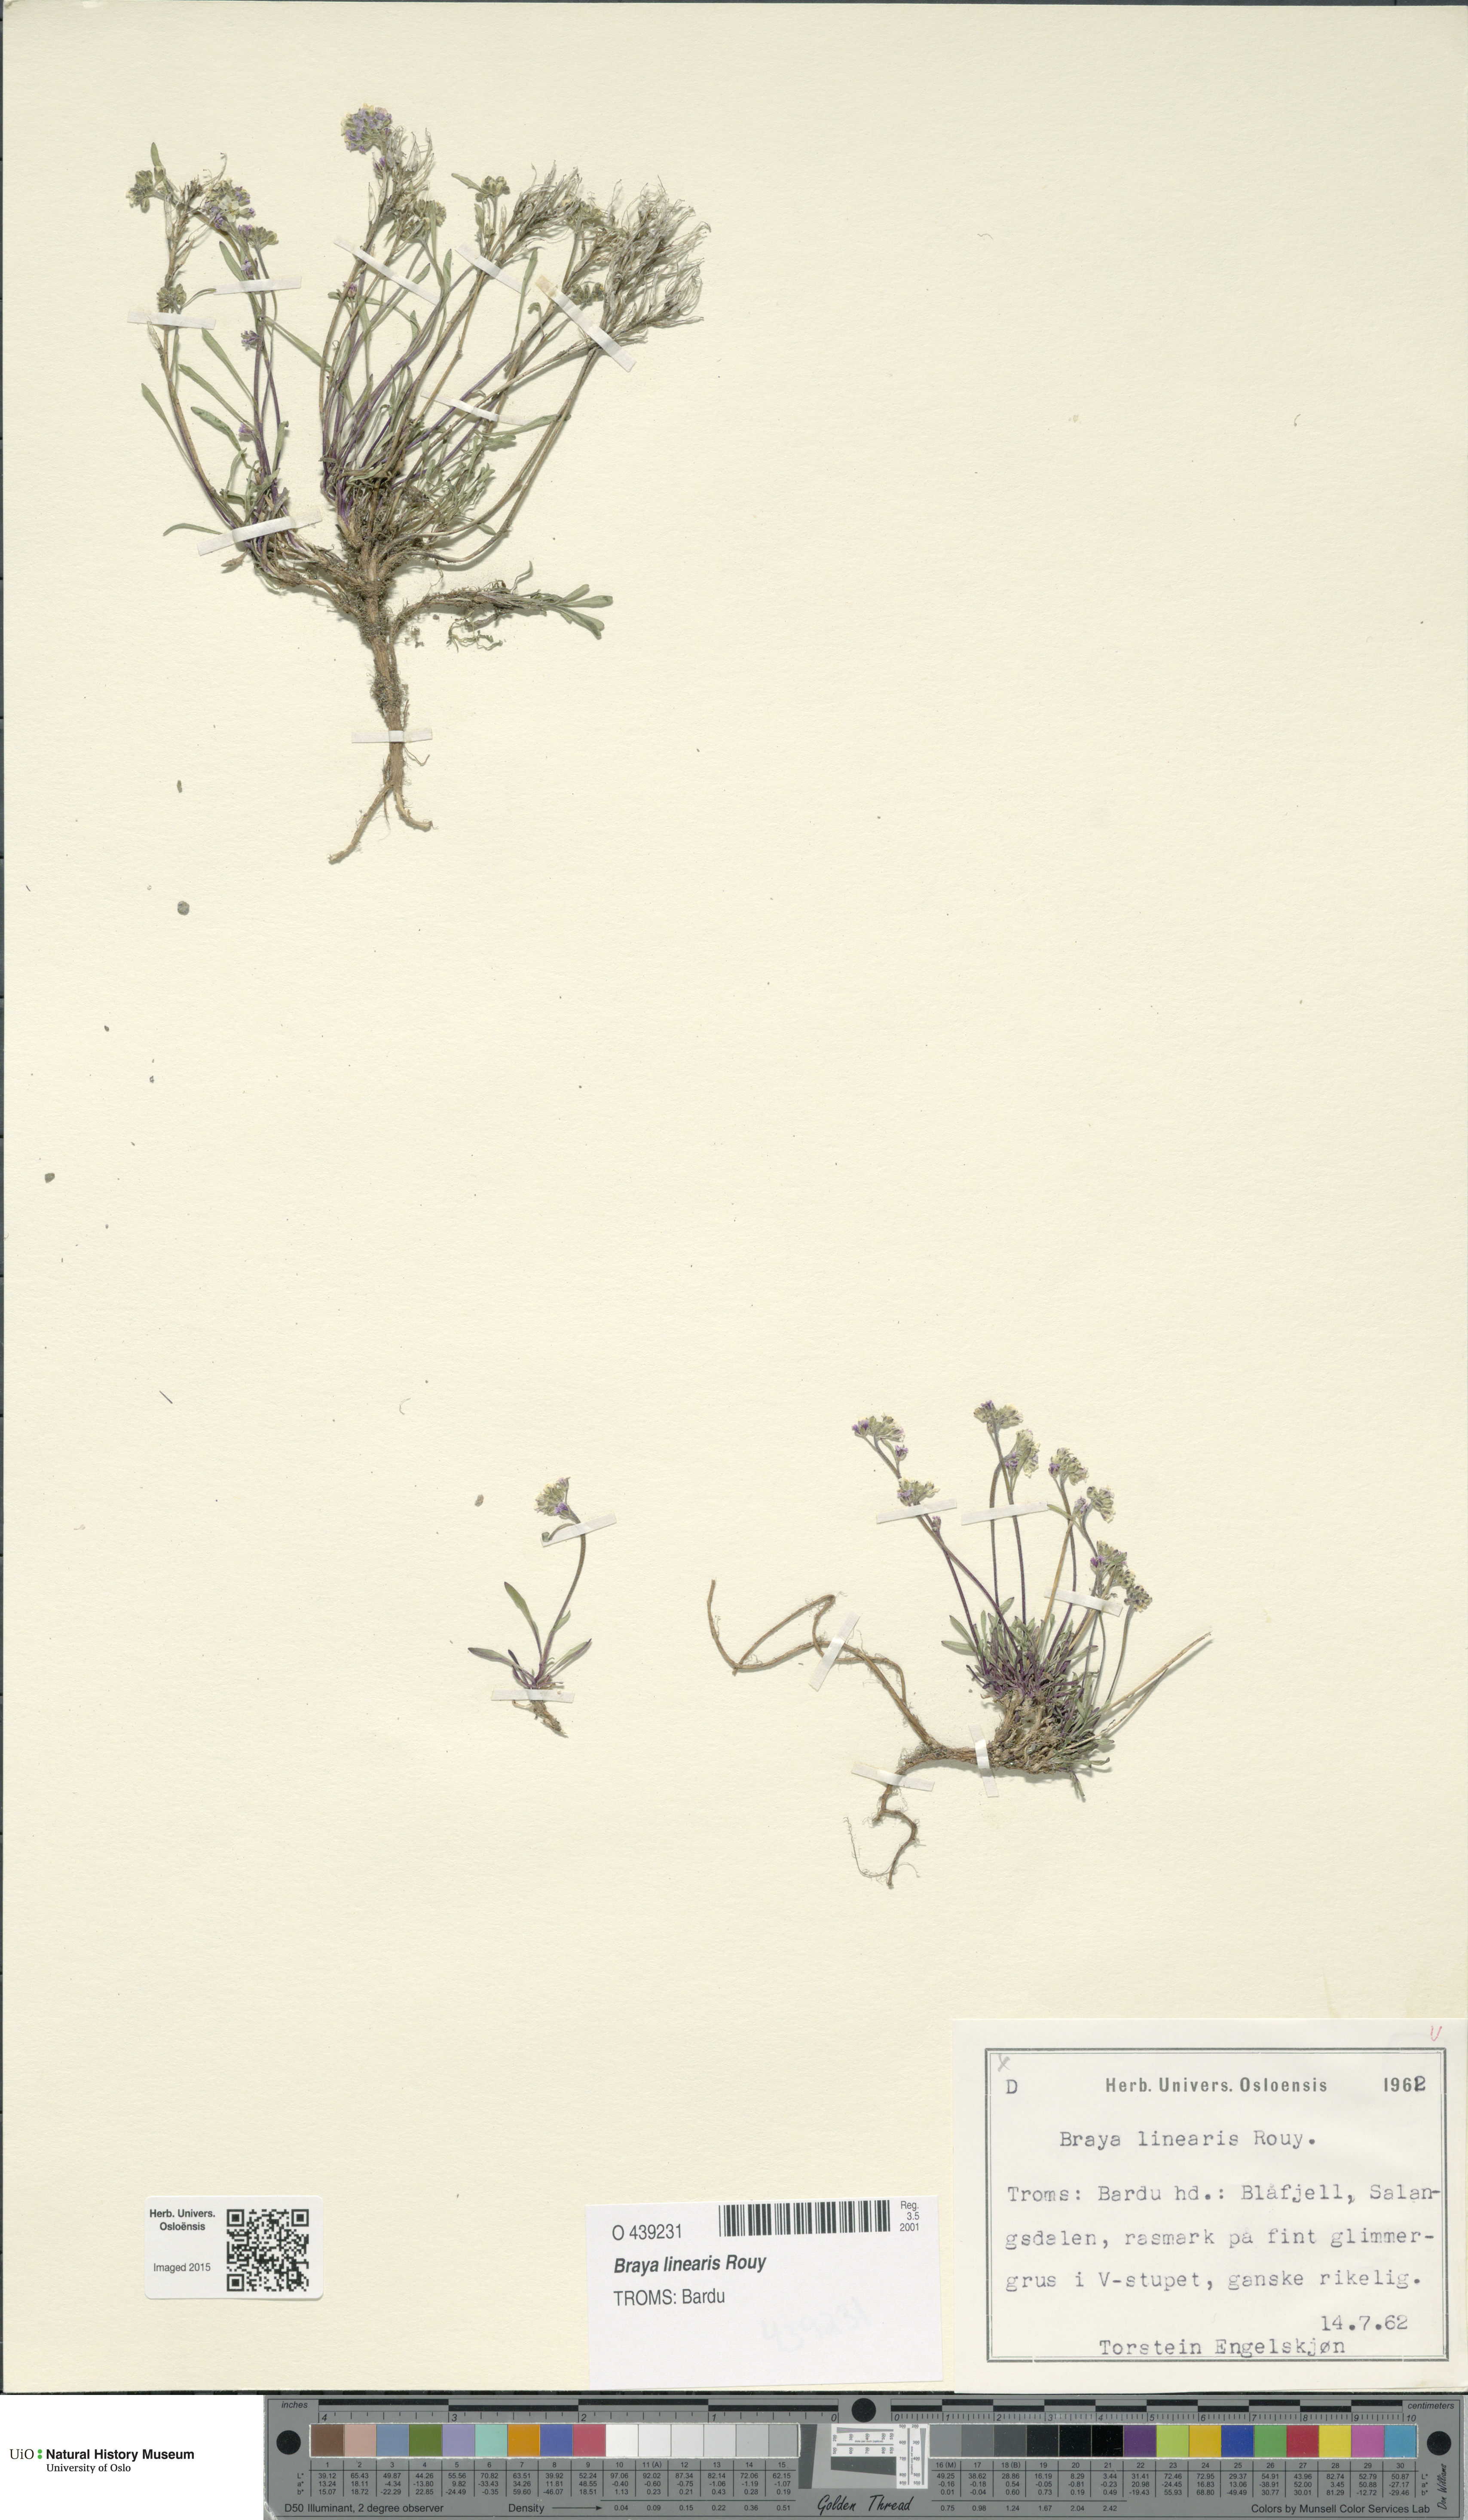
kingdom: Plantae
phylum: Tracheophyta
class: Magnoliopsida
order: Brassicales
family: Brassicaceae
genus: Braya
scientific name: Braya linearis
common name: Narrow-fruit braya
